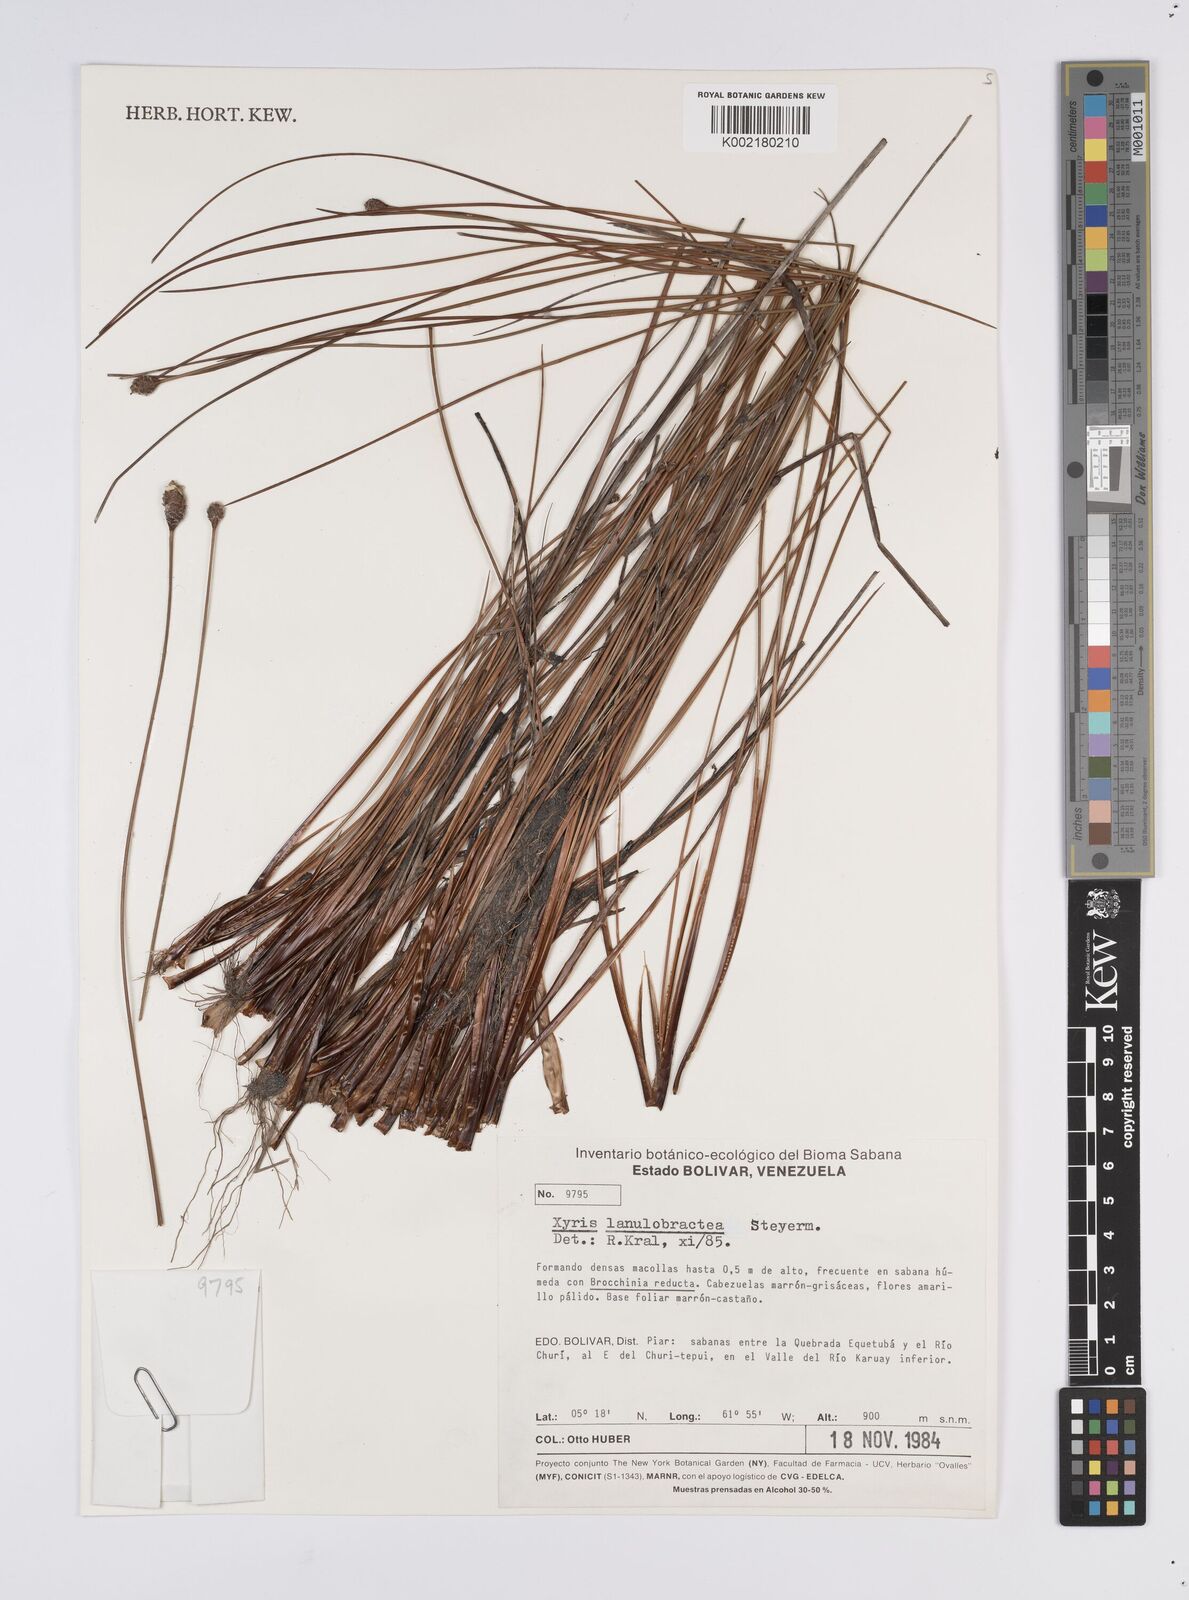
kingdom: Plantae
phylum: Tracheophyta
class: Liliopsida
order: Poales
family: Xyridaceae
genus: Xyris
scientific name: Xyris lanulobractea
